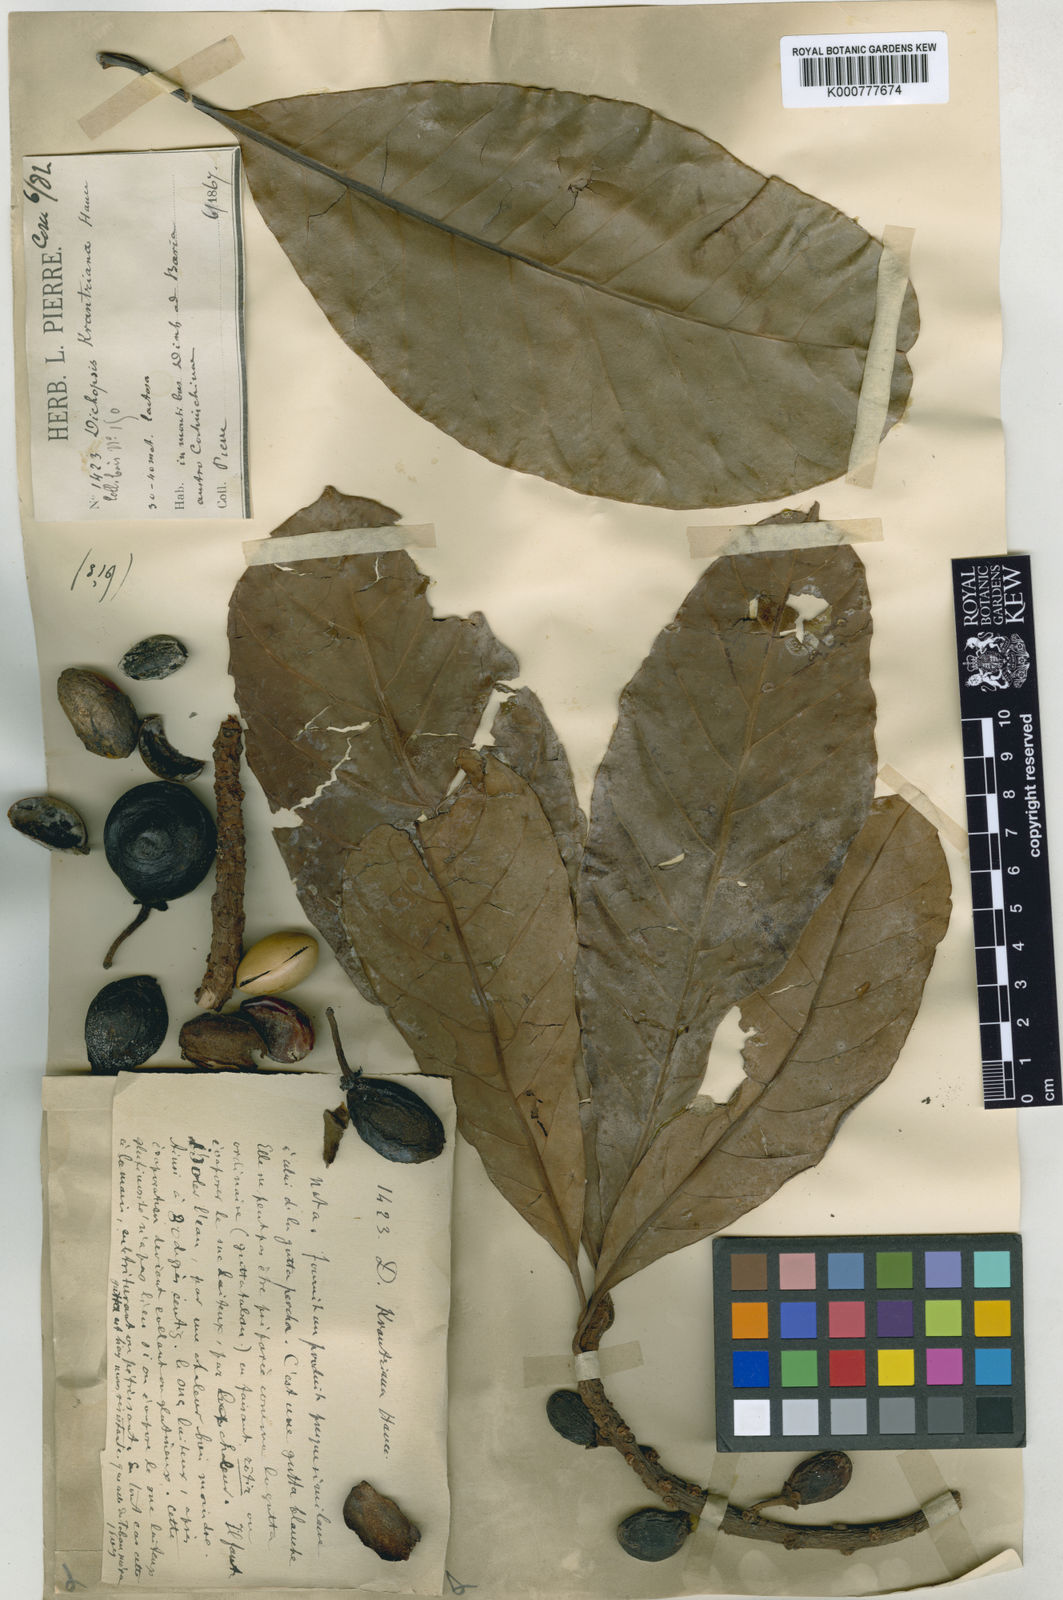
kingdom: Plantae
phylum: Tracheophyta
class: Magnoliopsida
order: Ericales
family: Sapotaceae
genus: Palaquium
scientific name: Palaquium obovatum
